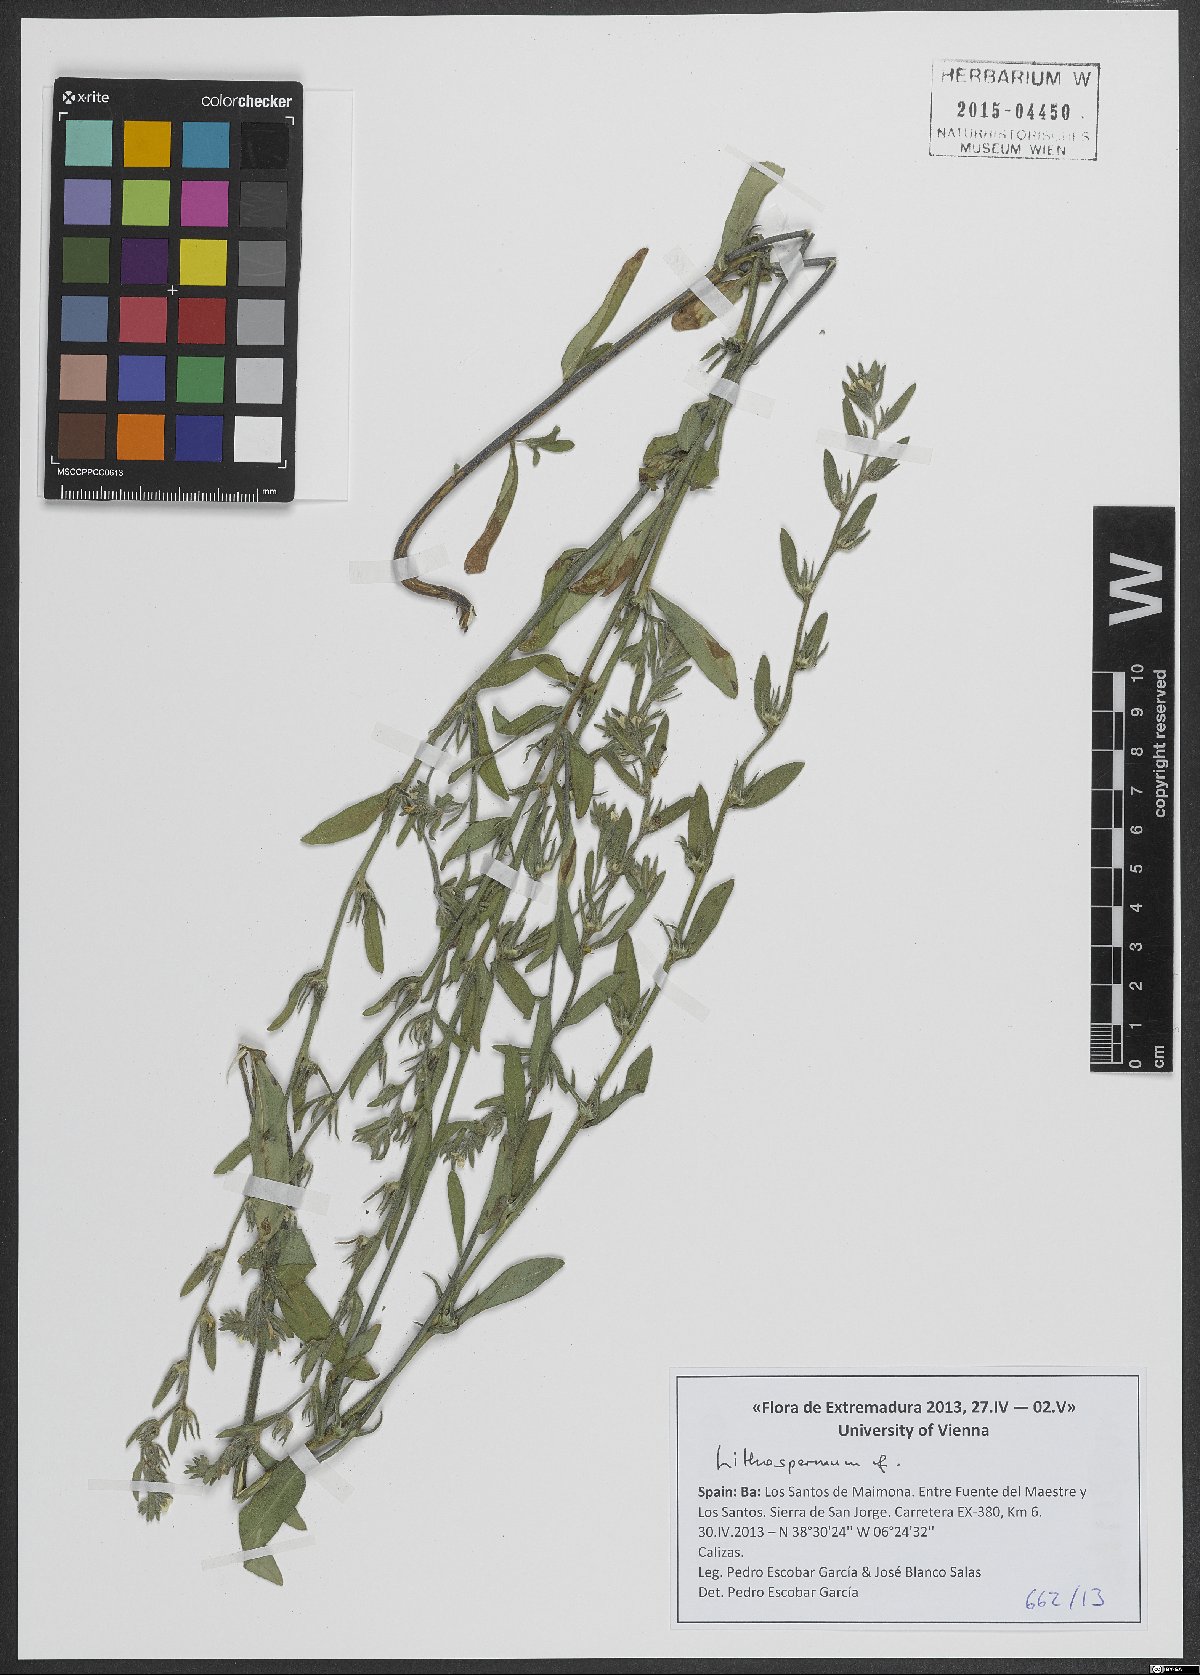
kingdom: Plantae
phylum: Tracheophyta
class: Magnoliopsida
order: Boraginales
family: Boraginaceae
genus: Lithospermum
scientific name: Lithospermum
